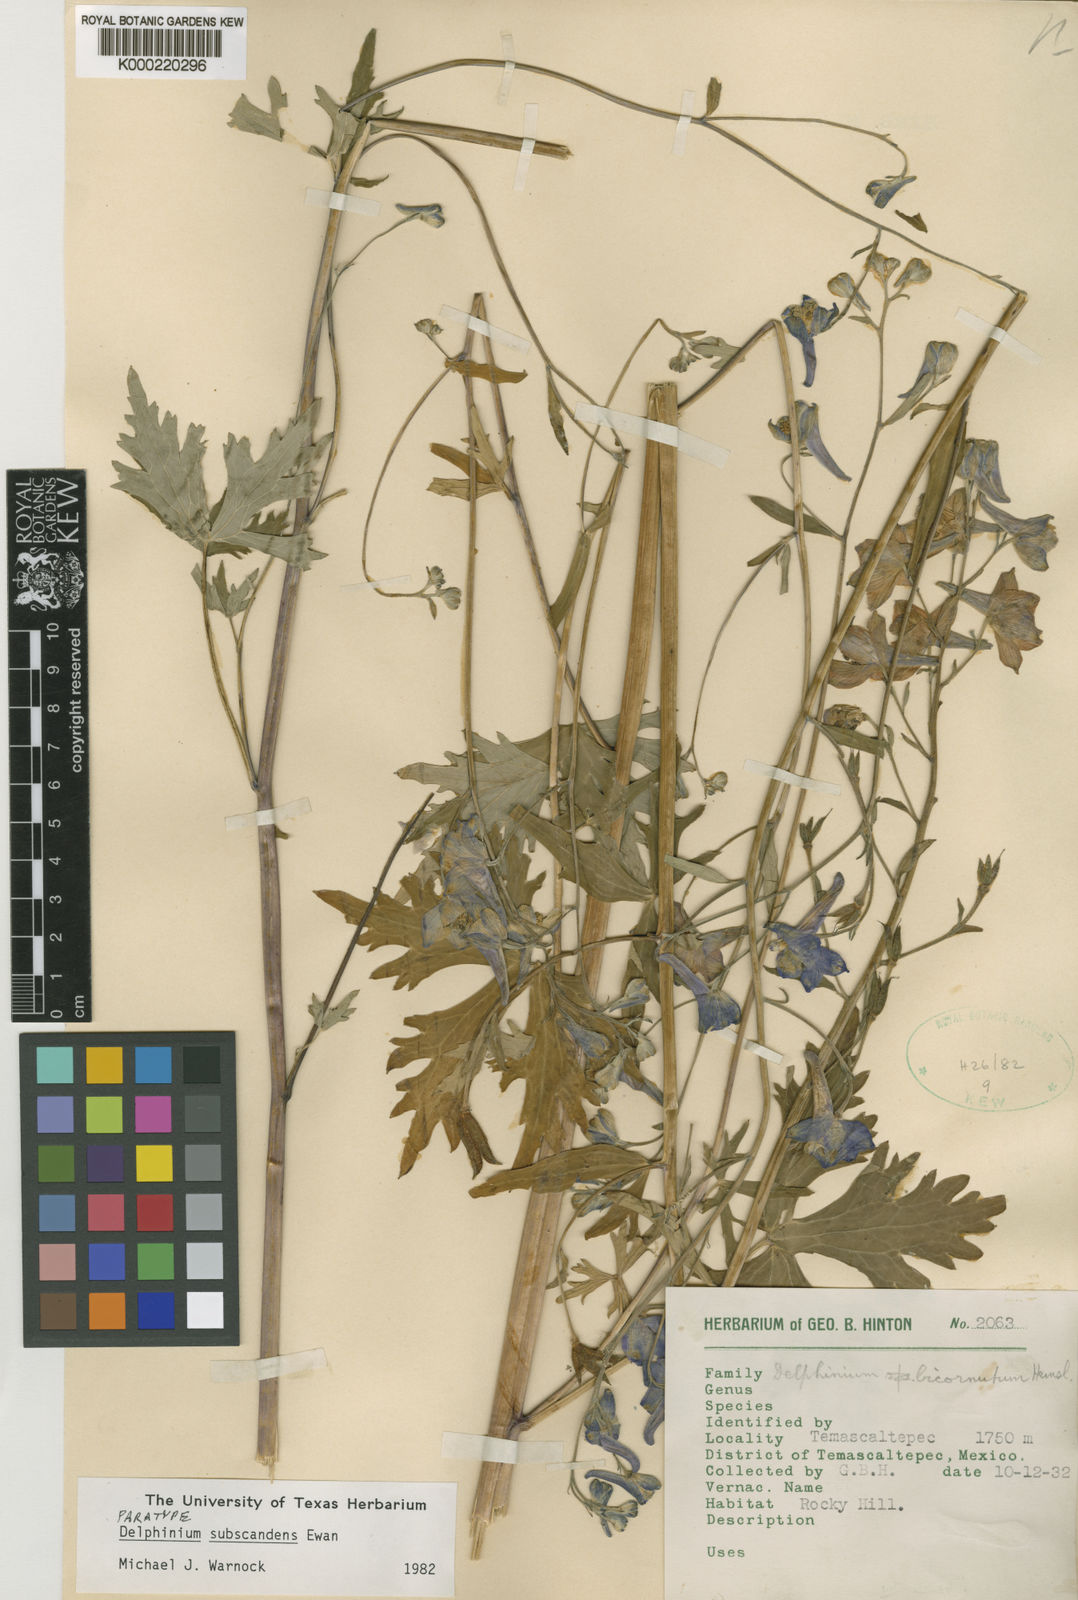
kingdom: Plantae
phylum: Tracheophyta
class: Magnoliopsida
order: Ranunculales
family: Ranunculaceae
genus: Delphinium
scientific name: Delphinium subscandens
